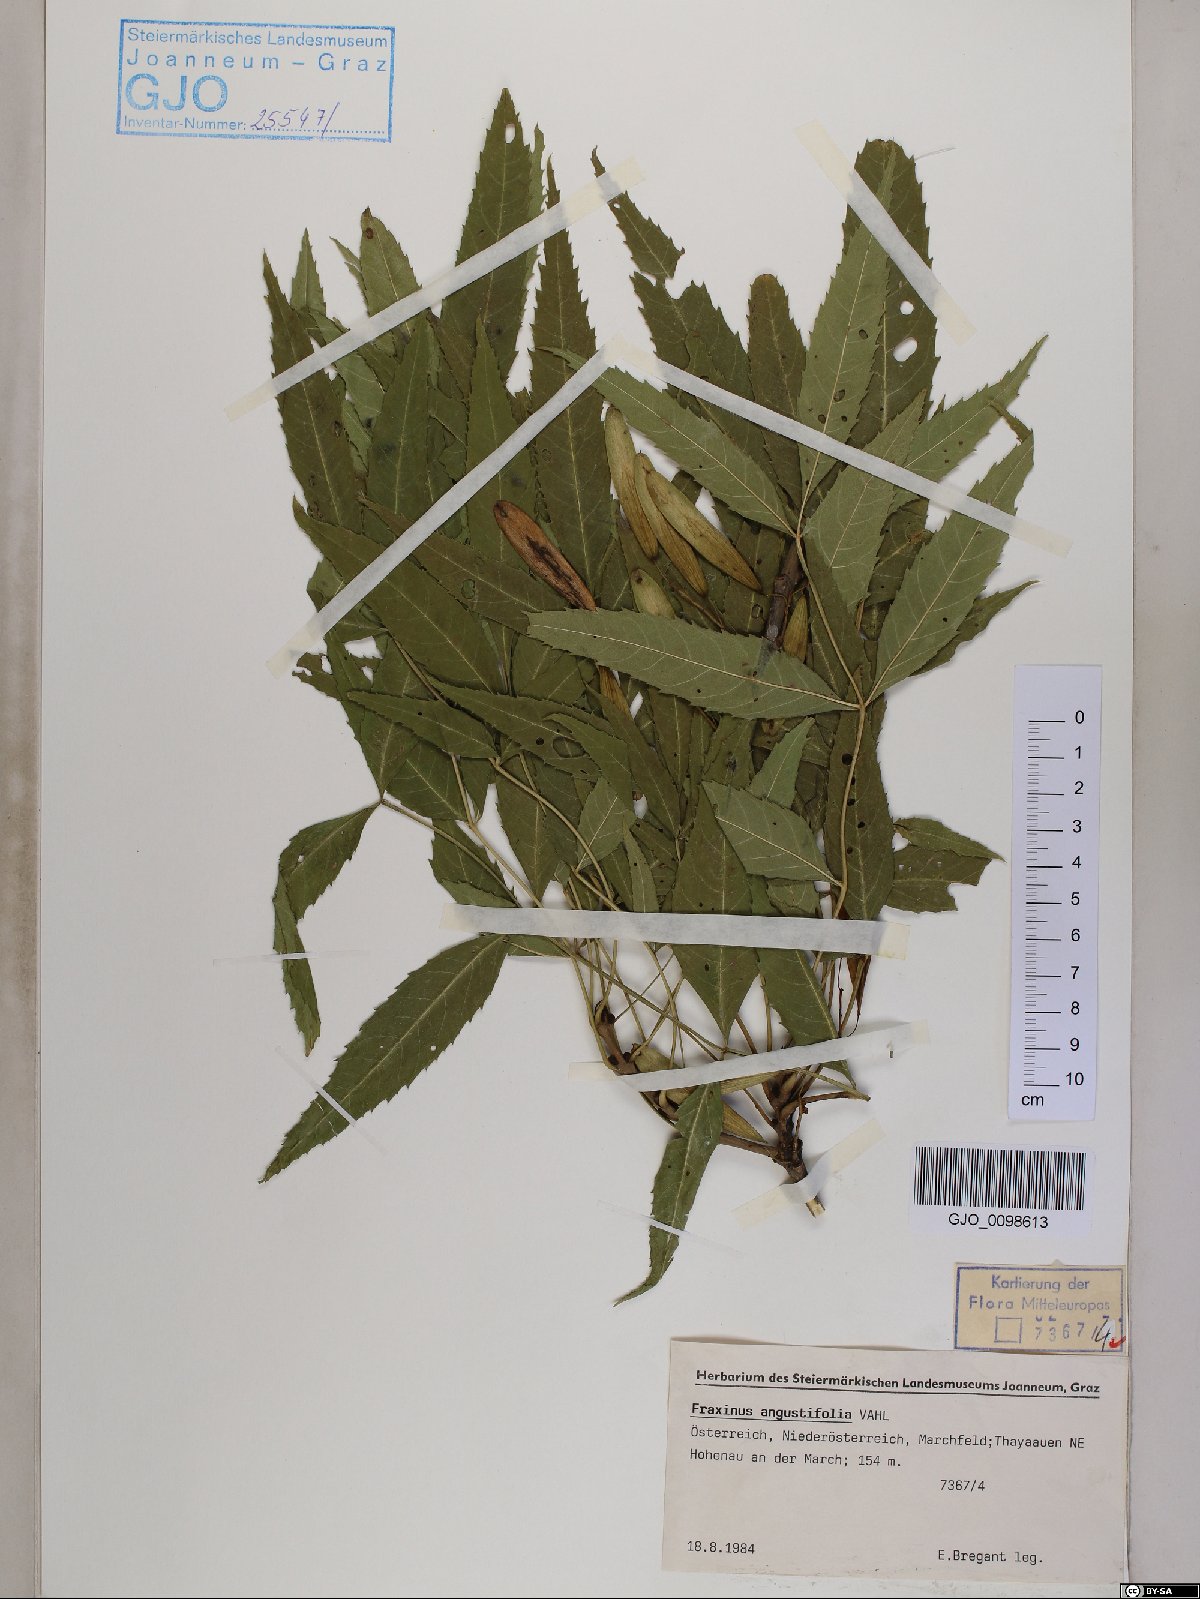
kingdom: Plantae
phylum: Tracheophyta
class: Magnoliopsida
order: Lamiales
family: Oleaceae
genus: Fraxinus
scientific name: Fraxinus angustifolia
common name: Narrow-leafed ash
